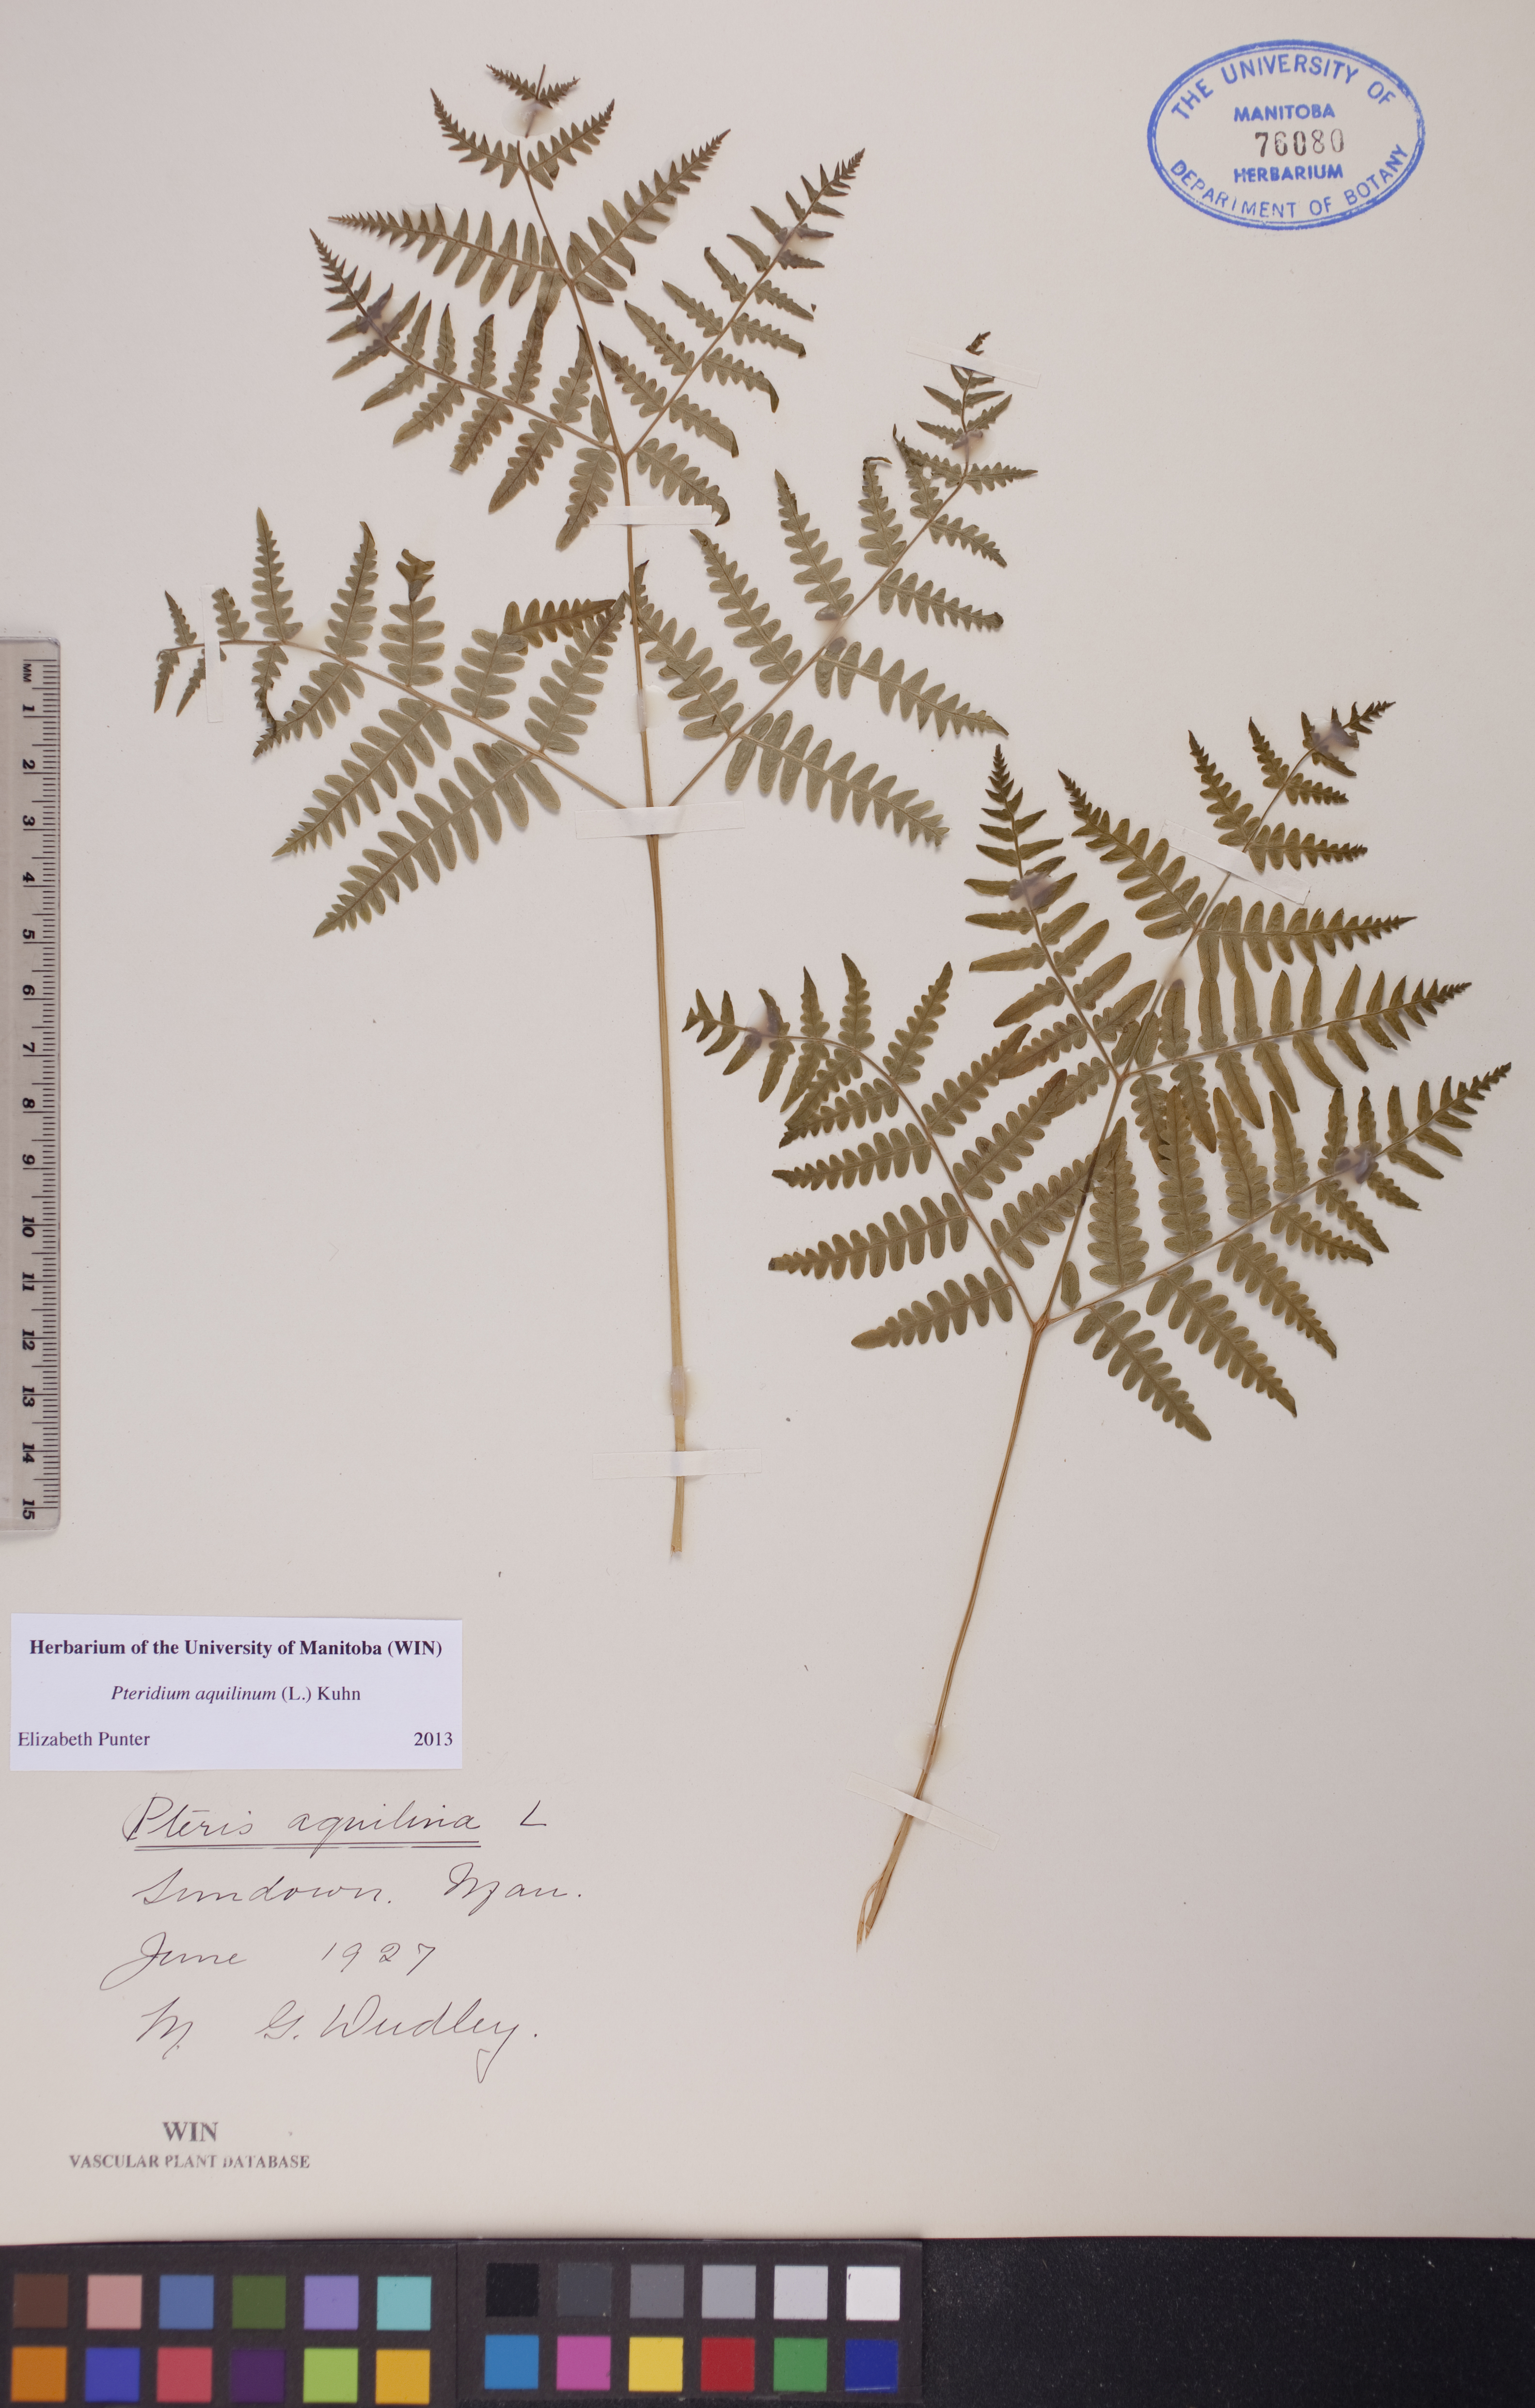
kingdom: Plantae
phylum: Tracheophyta
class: Polypodiopsida
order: Polypodiales
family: Dennstaedtiaceae
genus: Pteridium
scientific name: Pteridium aquilinum
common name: Bracken
